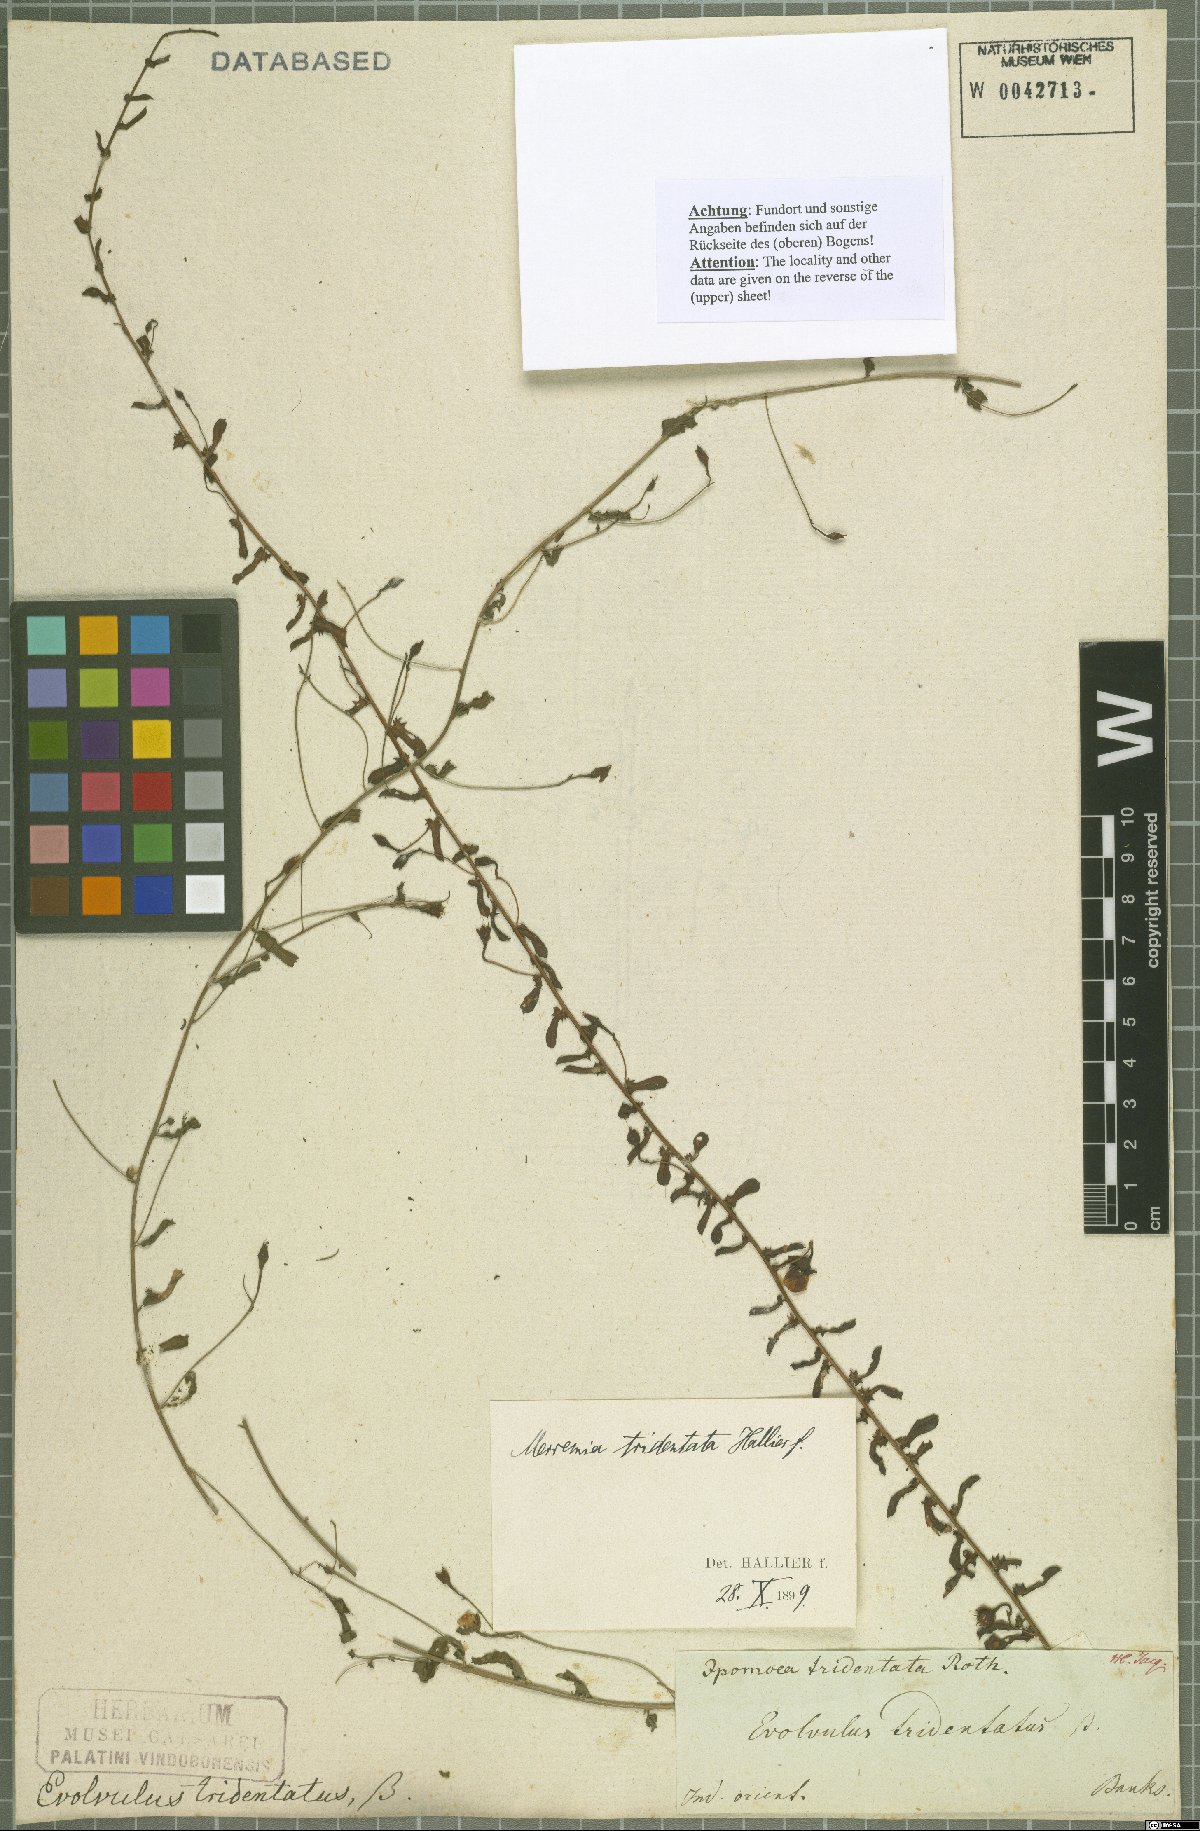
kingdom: Plantae
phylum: Tracheophyta
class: Magnoliopsida
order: Solanales
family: Convolvulaceae
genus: Xenostegia
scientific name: Xenostegia tridentata
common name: African morningvine
